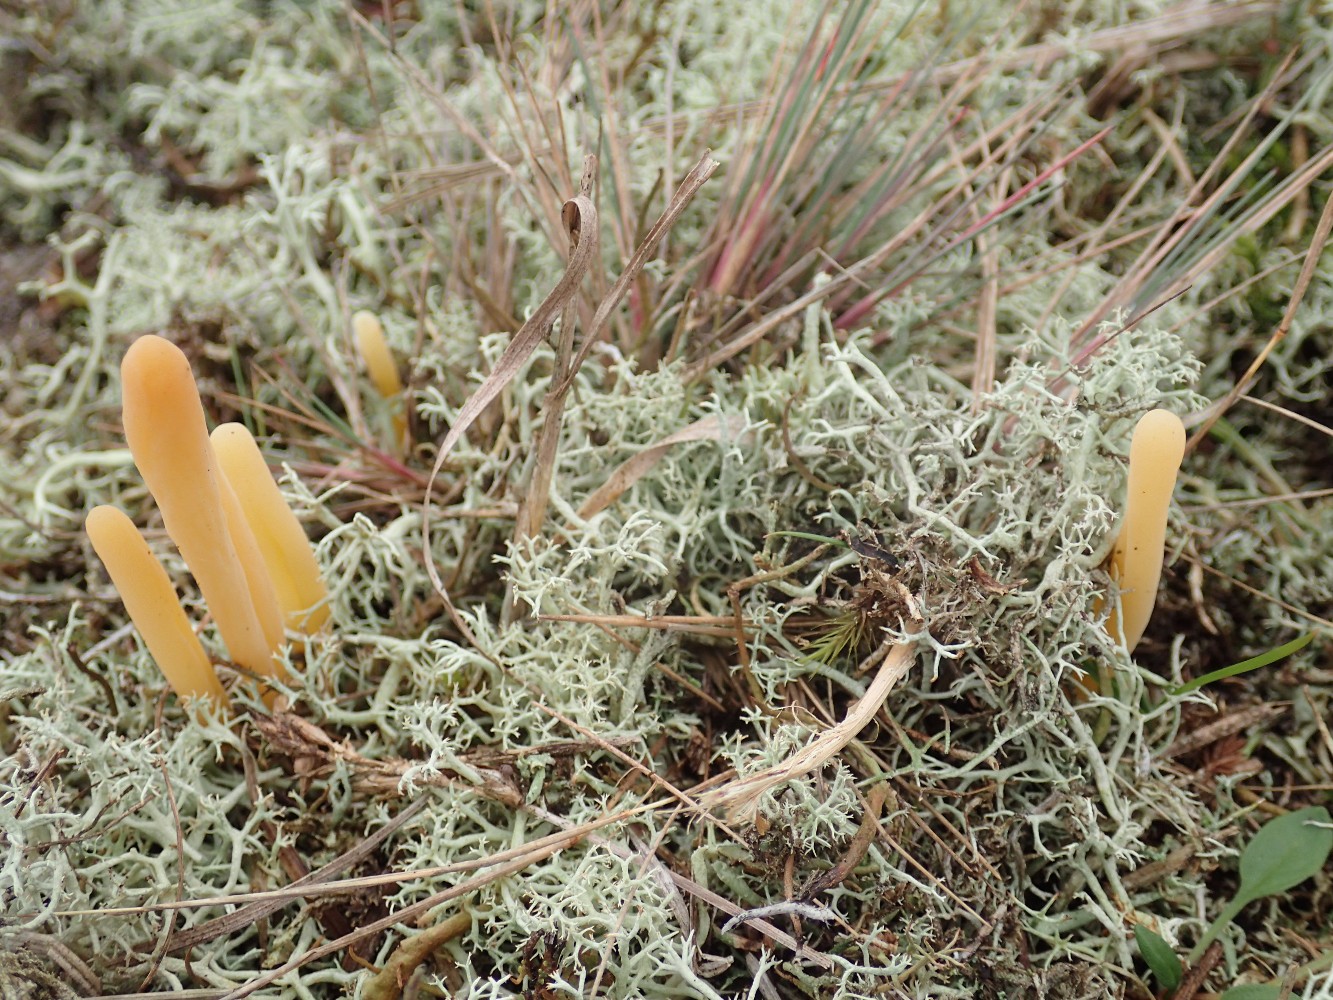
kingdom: Fungi
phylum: Basidiomycota
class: Agaricomycetes
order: Agaricales
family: Clavariaceae
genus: Clavaria
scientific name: Clavaria argillacea
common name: lerfarvet køllesvamp
